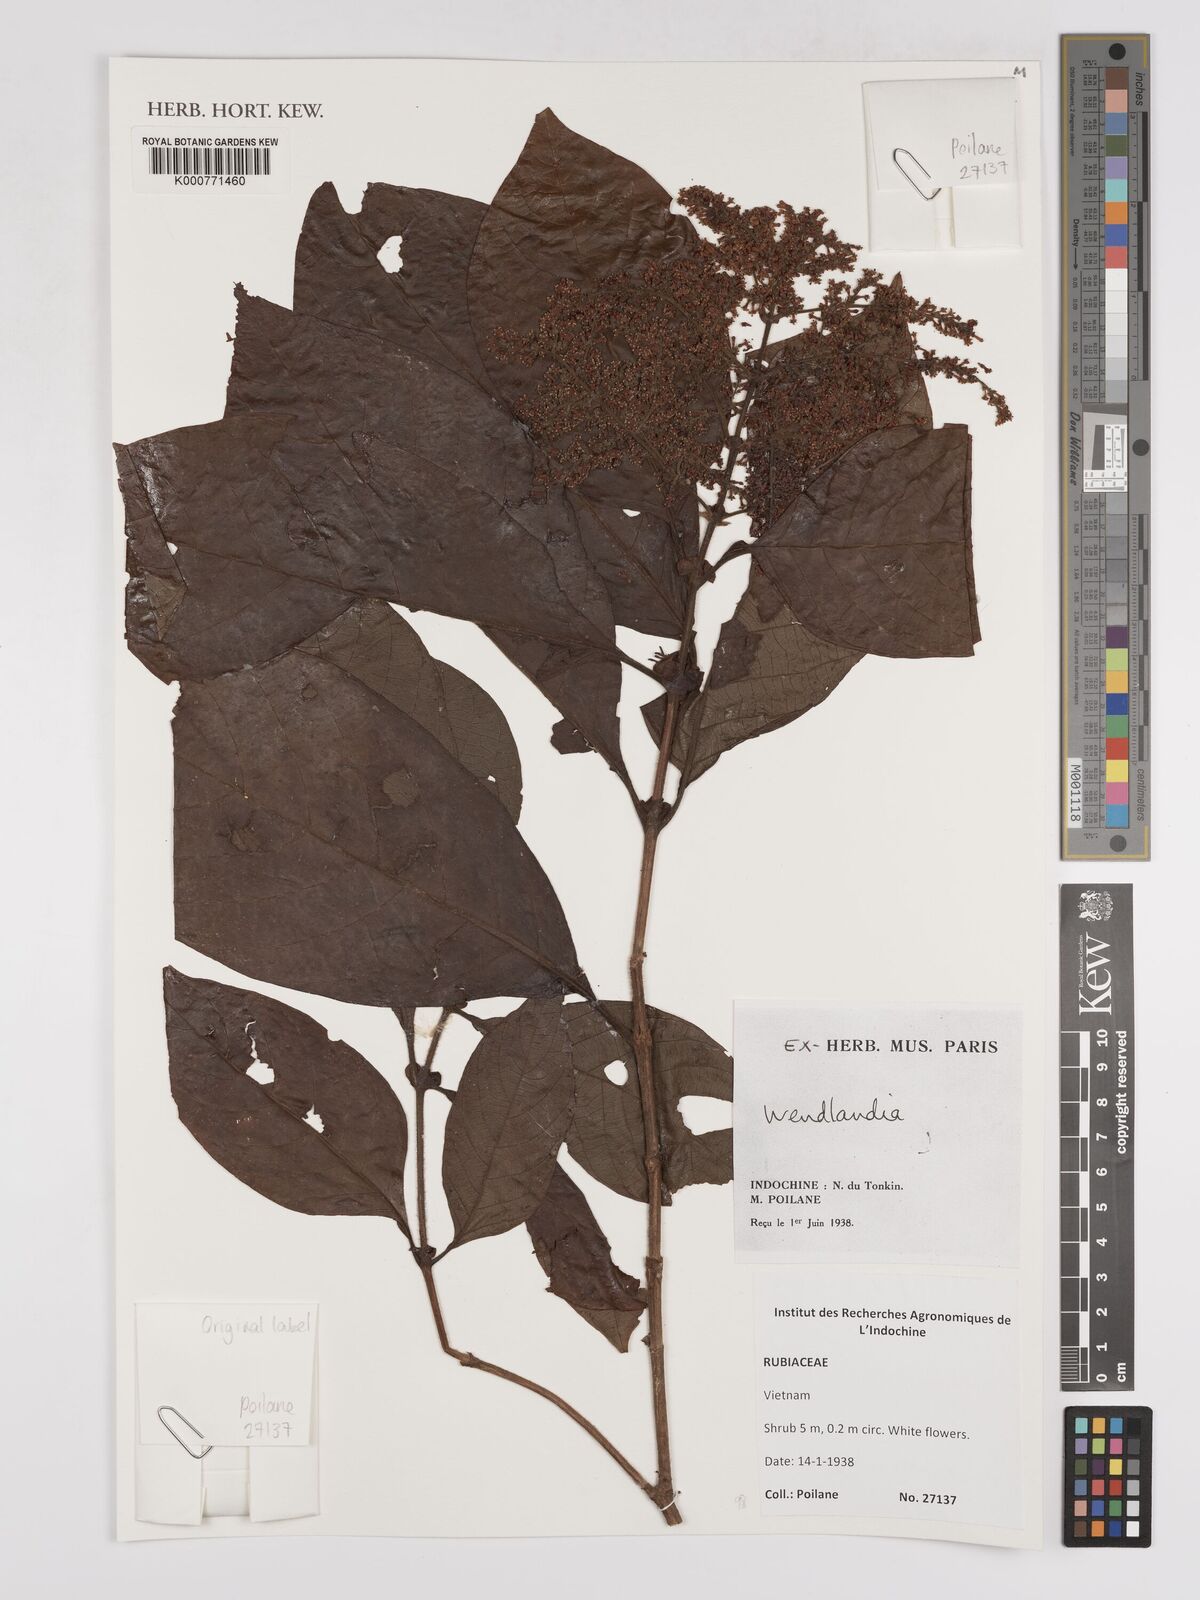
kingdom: Plantae
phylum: Tracheophyta
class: Magnoliopsida
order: Gentianales
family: Rubiaceae
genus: Wendlandia
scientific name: Wendlandia
